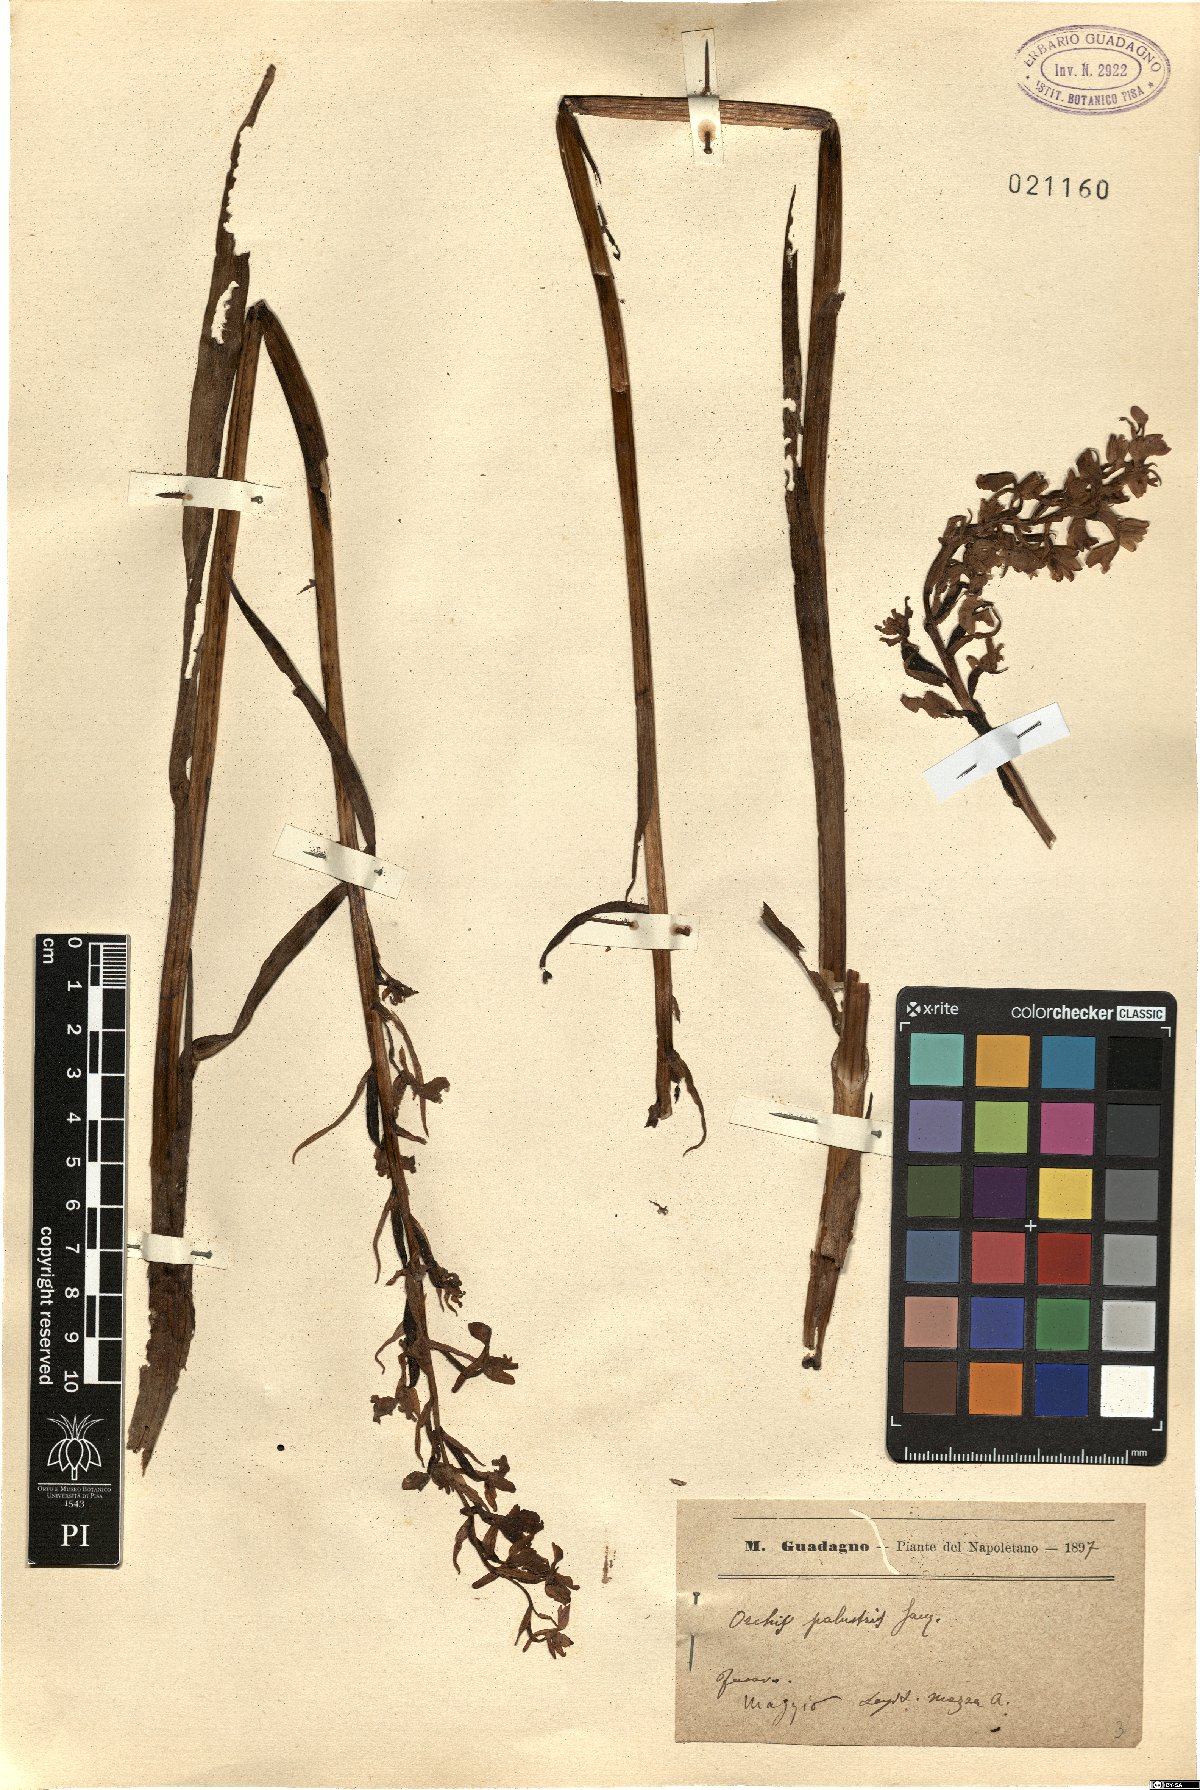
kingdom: Plantae
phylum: Tracheophyta
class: Liliopsida
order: Asparagales
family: Orchidaceae
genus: Anacamptis
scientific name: Anacamptis palustris
